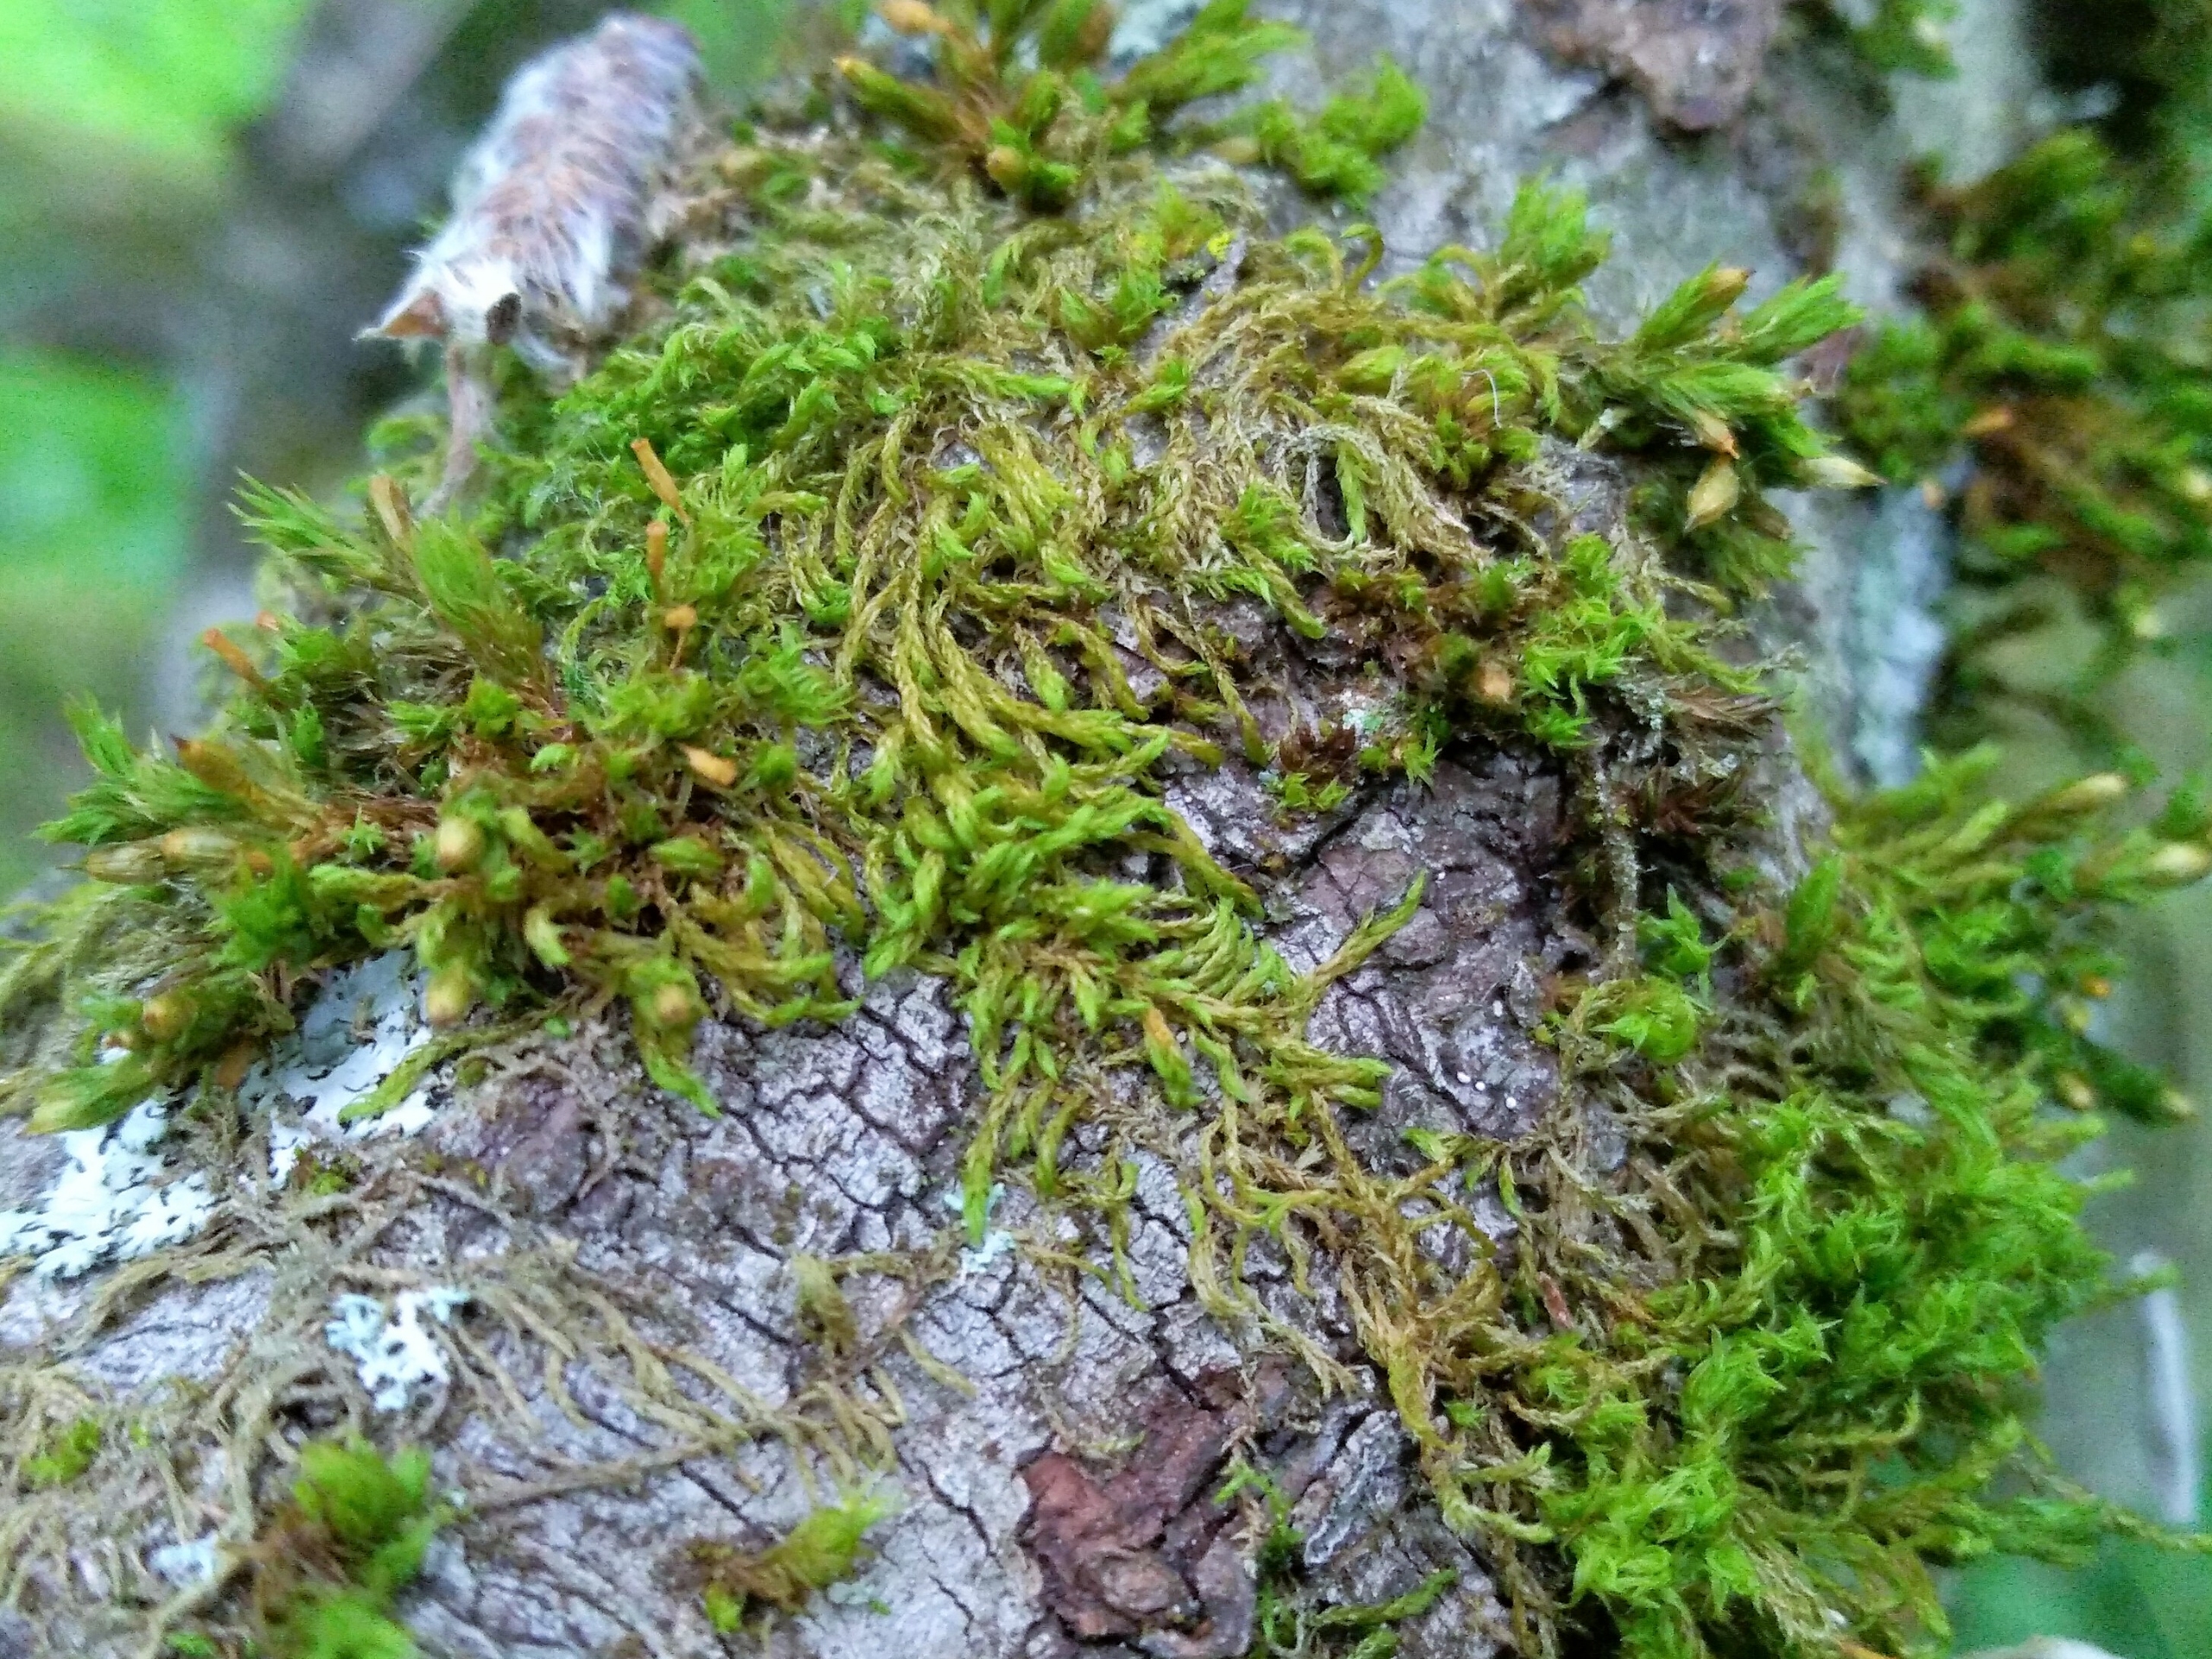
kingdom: Plantae
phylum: Bryophyta
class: Bryopsida
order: Hypnales
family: Leskeaceae
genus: Leskea
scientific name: Leskea polycarpa
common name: Mat lærkemos
